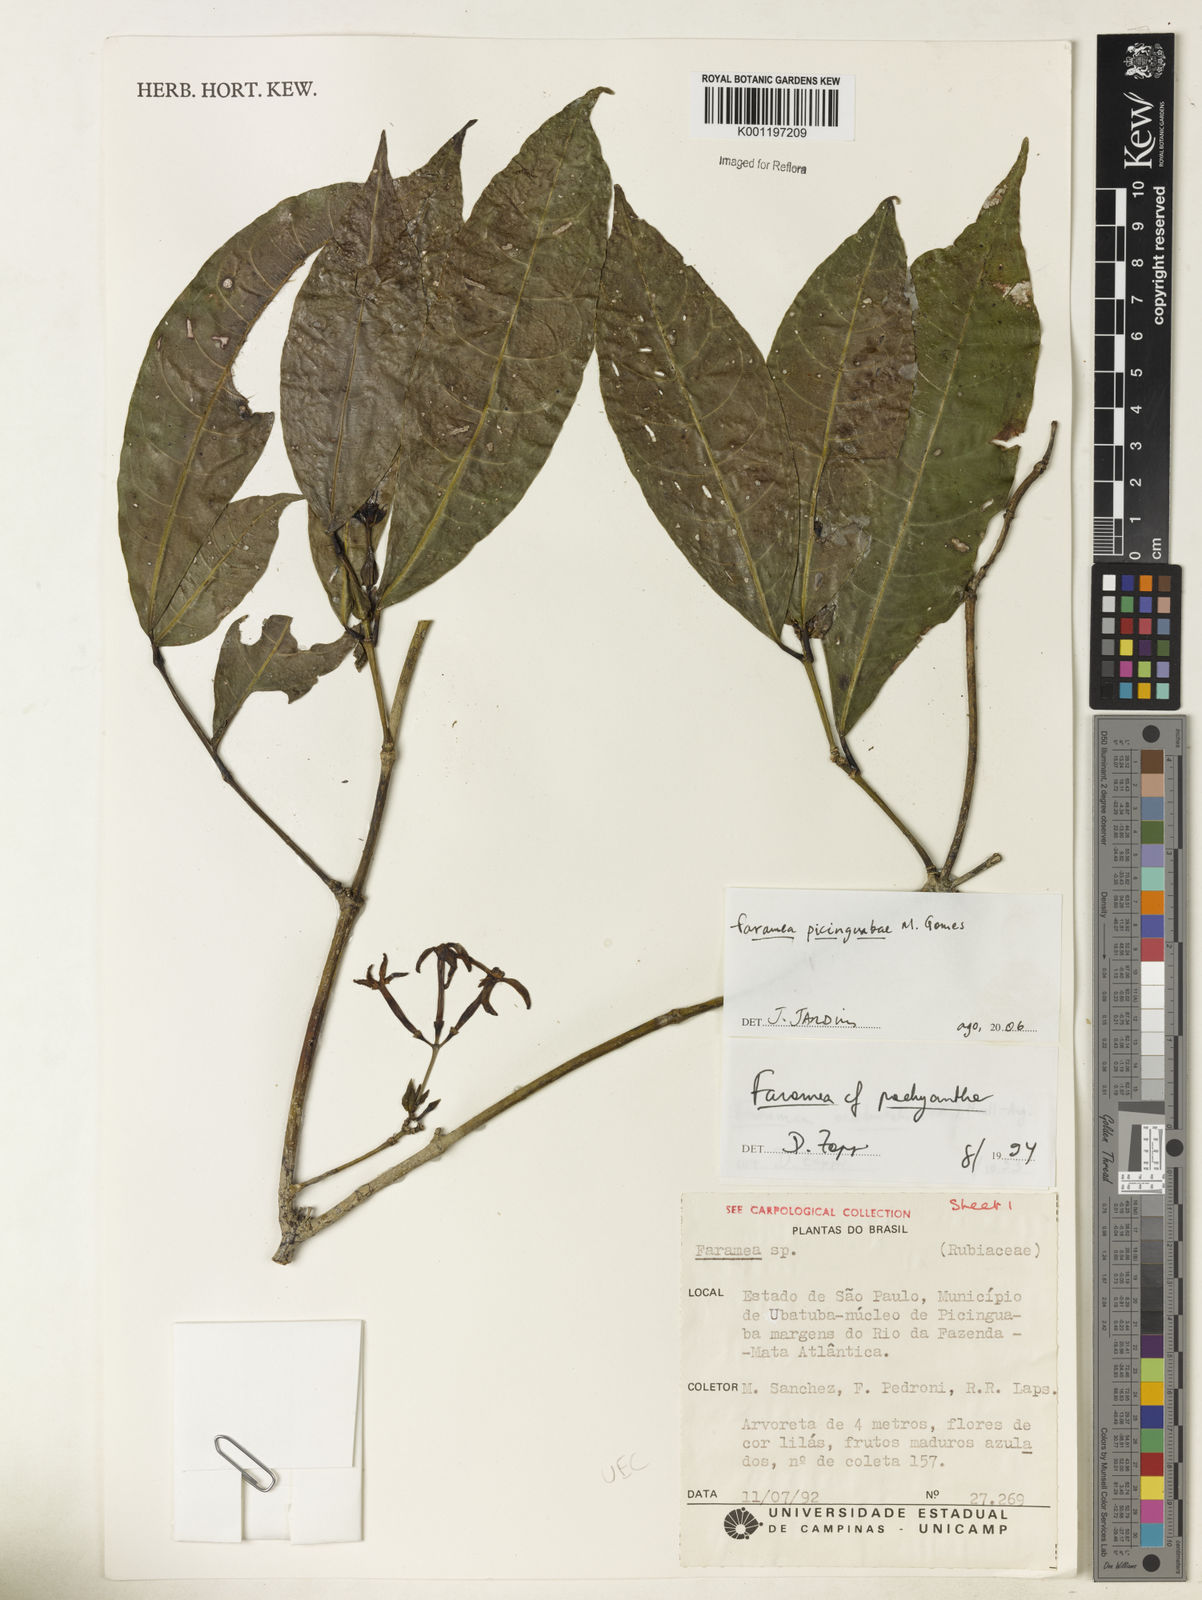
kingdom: Plantae
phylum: Tracheophyta
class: Magnoliopsida
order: Gentianales
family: Rubiaceae
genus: Faramea
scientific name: Faramea picinguabae
